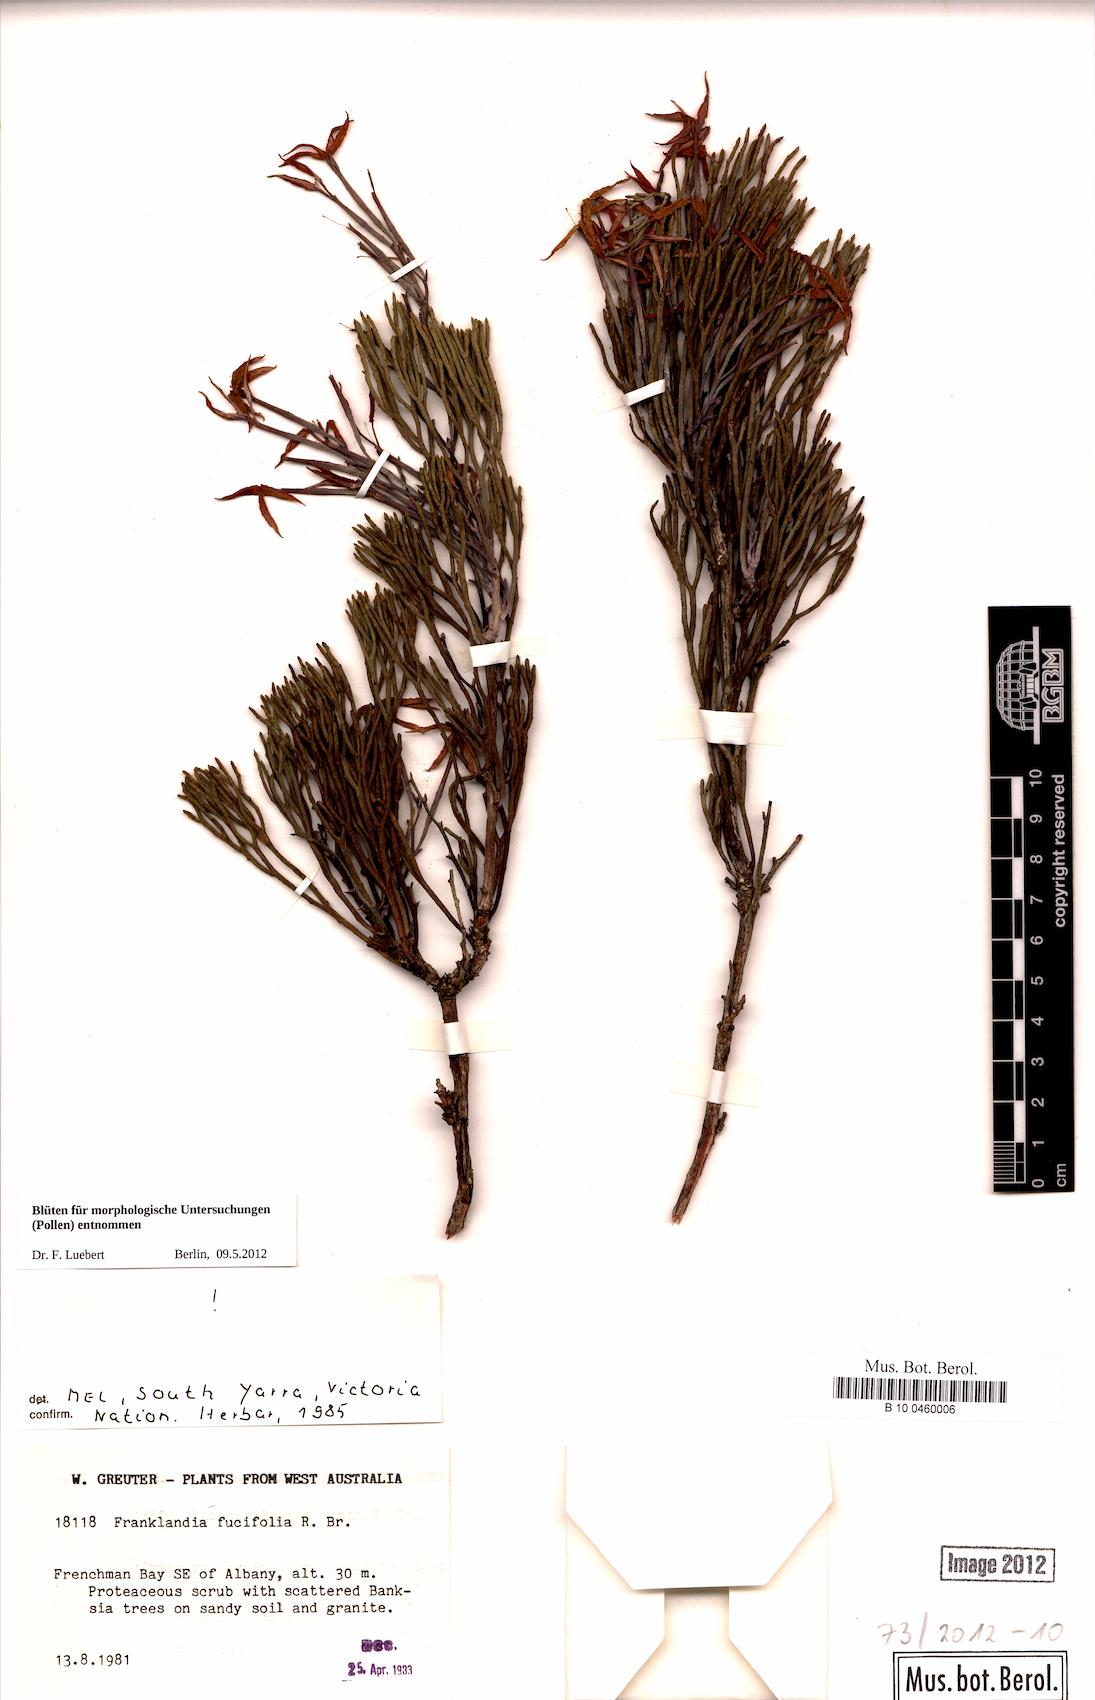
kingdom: Plantae
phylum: Tracheophyta
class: Magnoliopsida
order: Proteales
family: Proteaceae
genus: Franklandia
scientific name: Franklandia fucifolia
